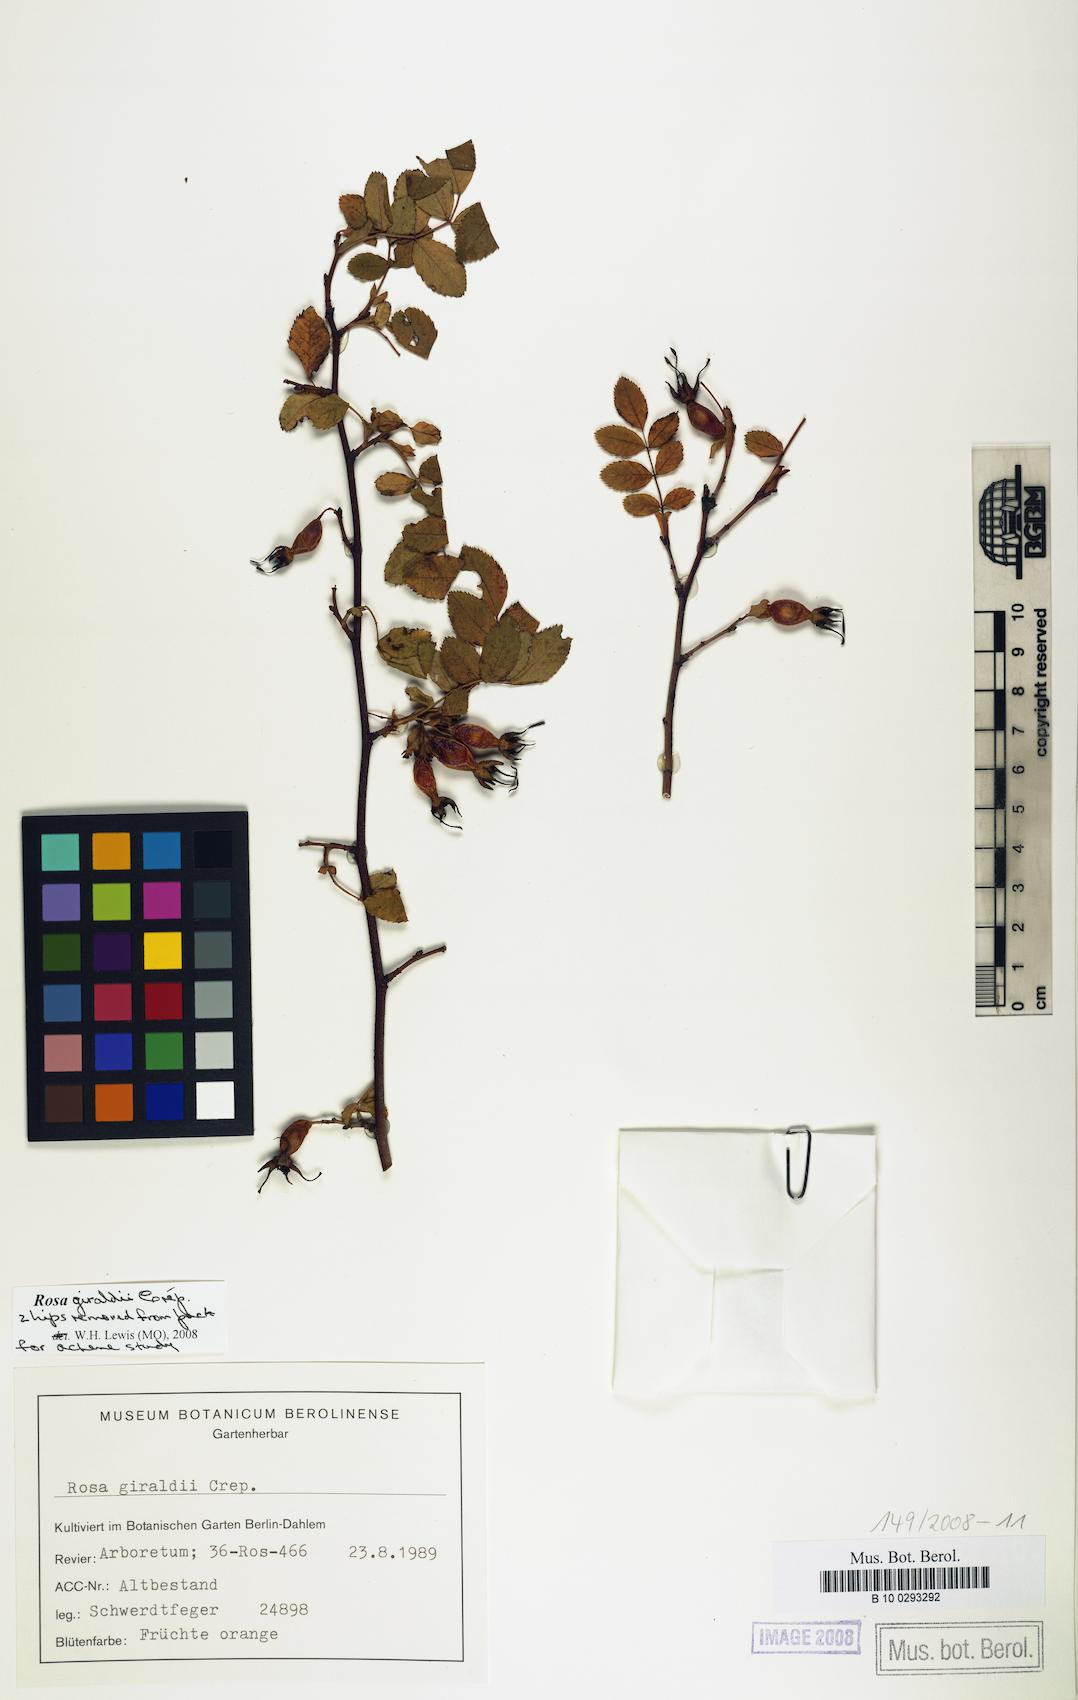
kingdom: Plantae
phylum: Tracheophyta
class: Magnoliopsida
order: Rosales
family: Rosaceae
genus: Rosa
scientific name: Rosa giraldii
